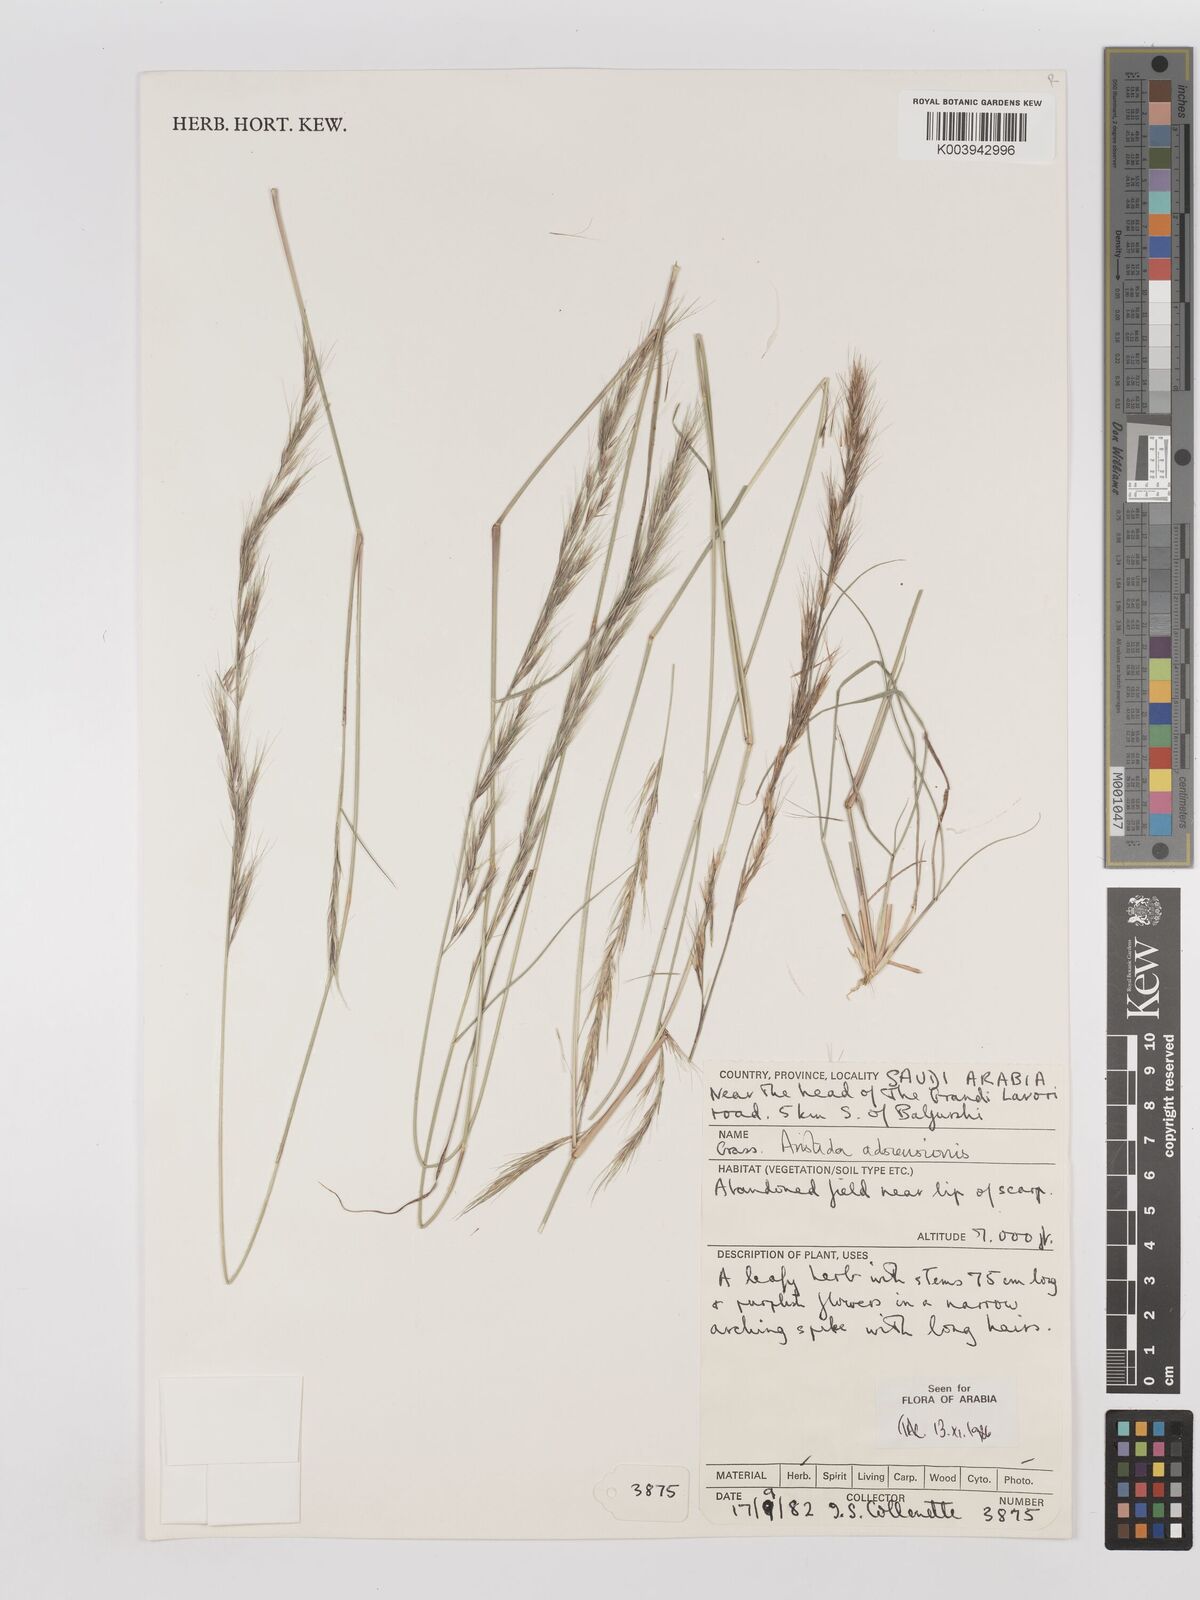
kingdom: Plantae
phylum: Tracheophyta
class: Liliopsida
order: Poales
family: Poaceae
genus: Aristida
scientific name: Aristida adscensionis
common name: Sixweeks threeawn
